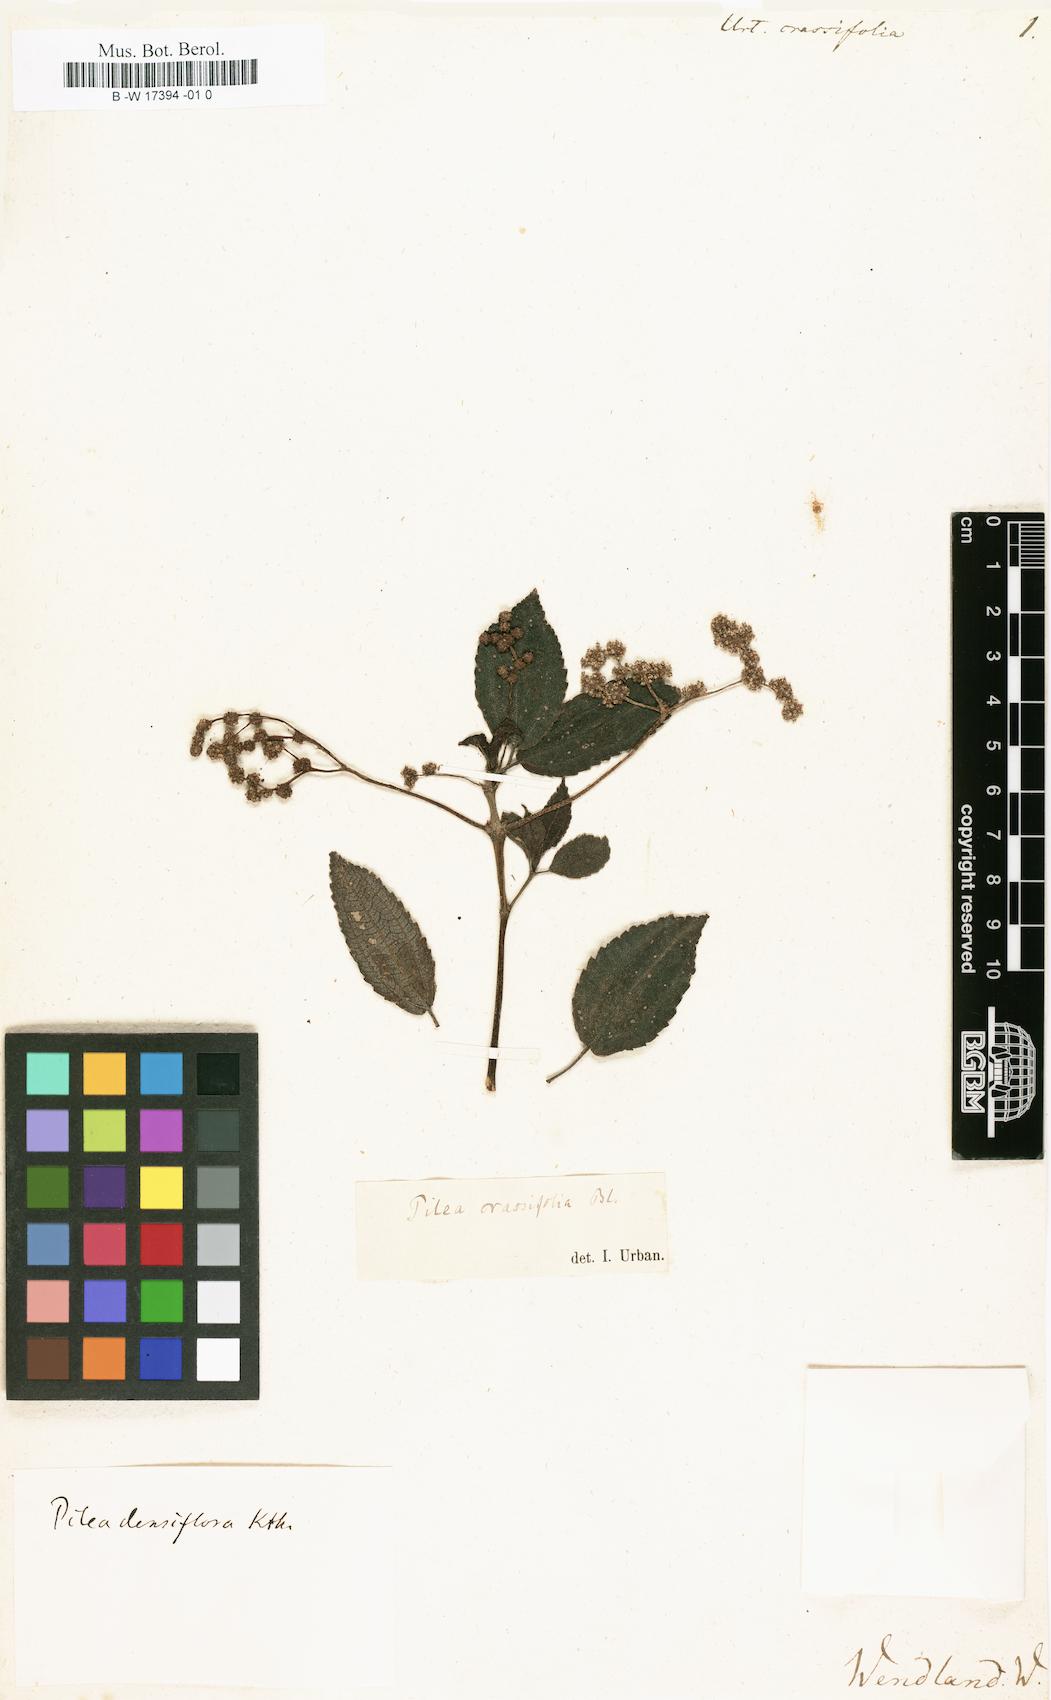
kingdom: Plantae
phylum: Tracheophyta
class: Magnoliopsida
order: Rosales
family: Urticaceae
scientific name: Urticaceae
